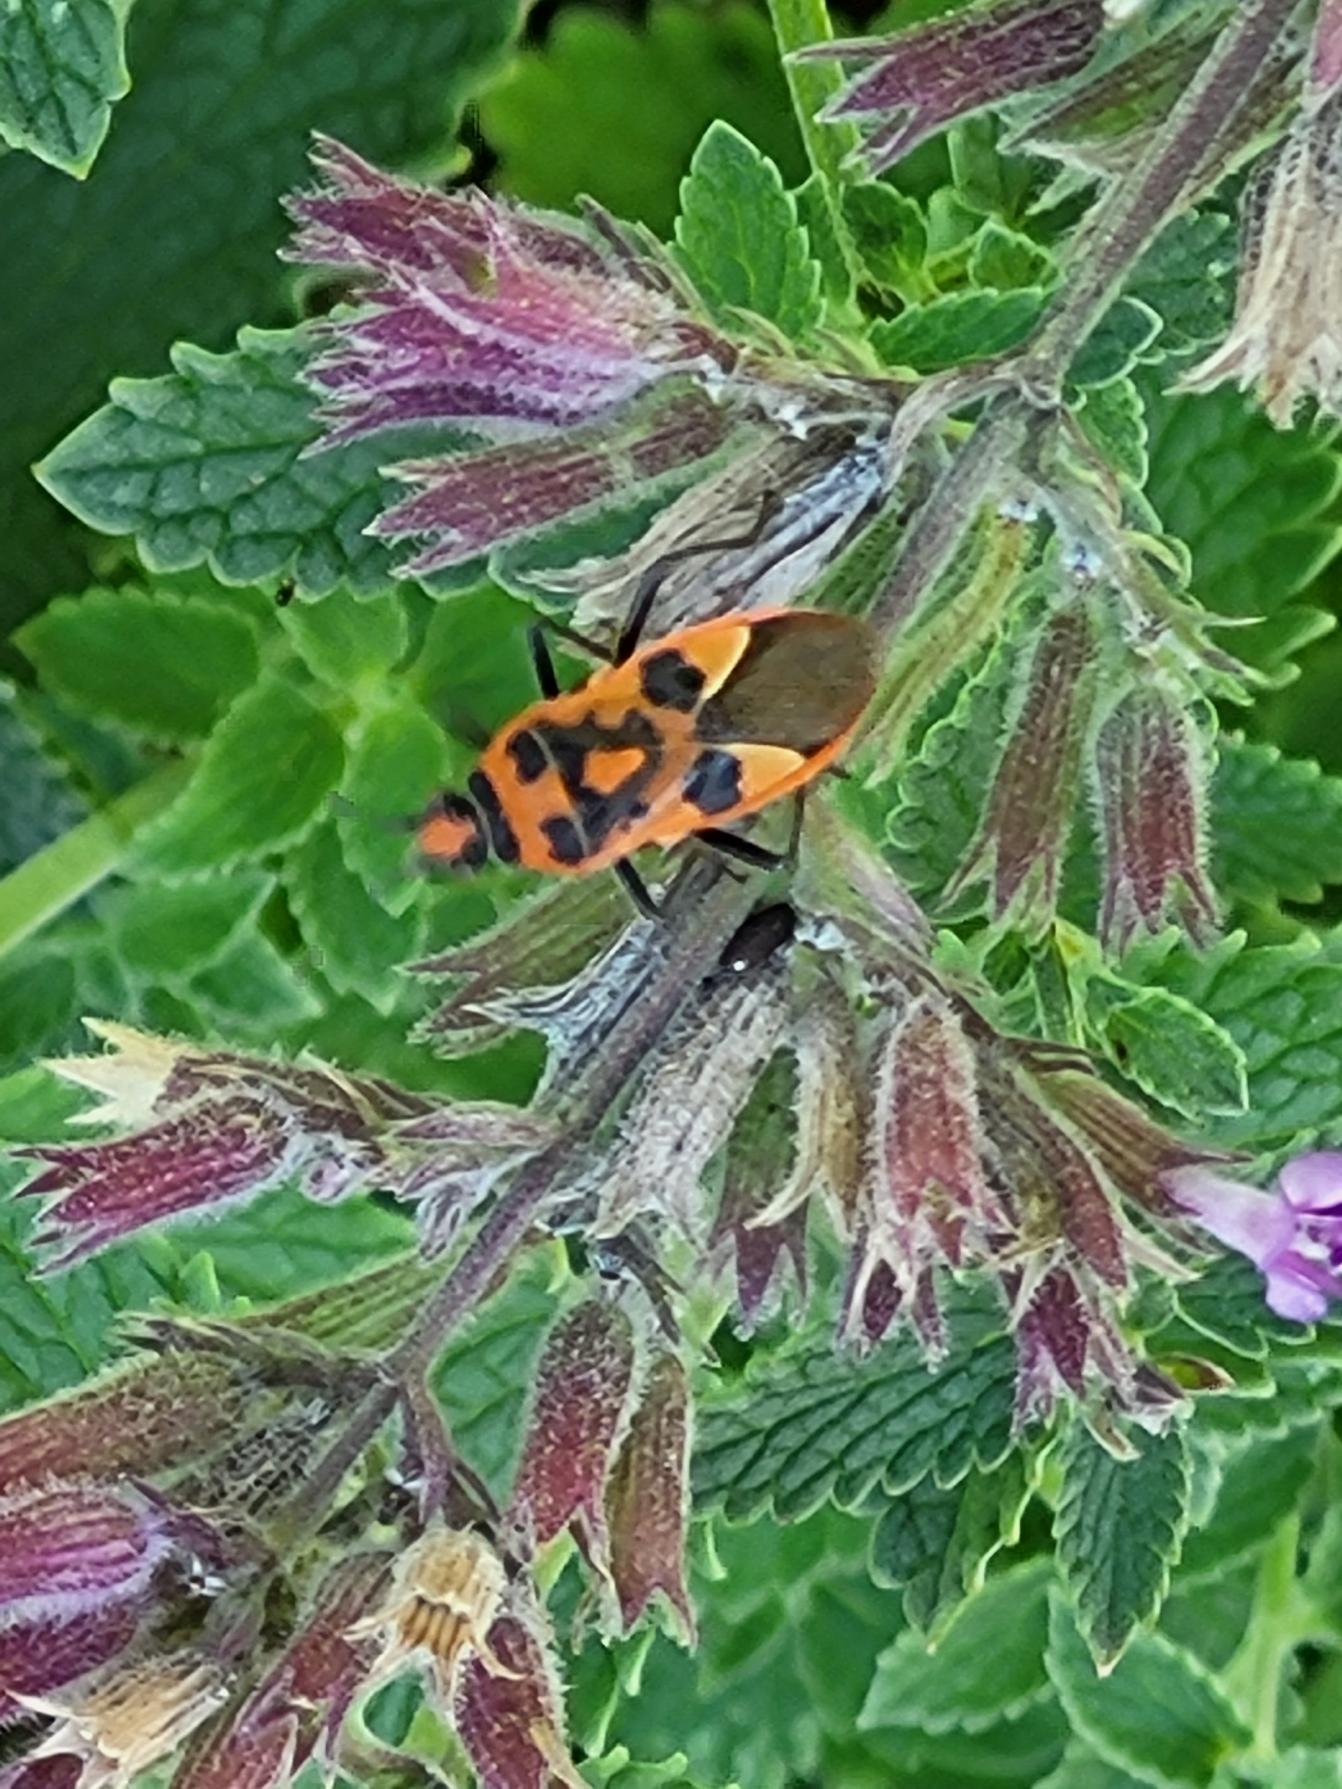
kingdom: Animalia
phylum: Arthropoda
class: Insecta
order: Hemiptera
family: Rhopalidae
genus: Corizus
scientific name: Corizus hyoscyami
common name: Rød kanttæge
